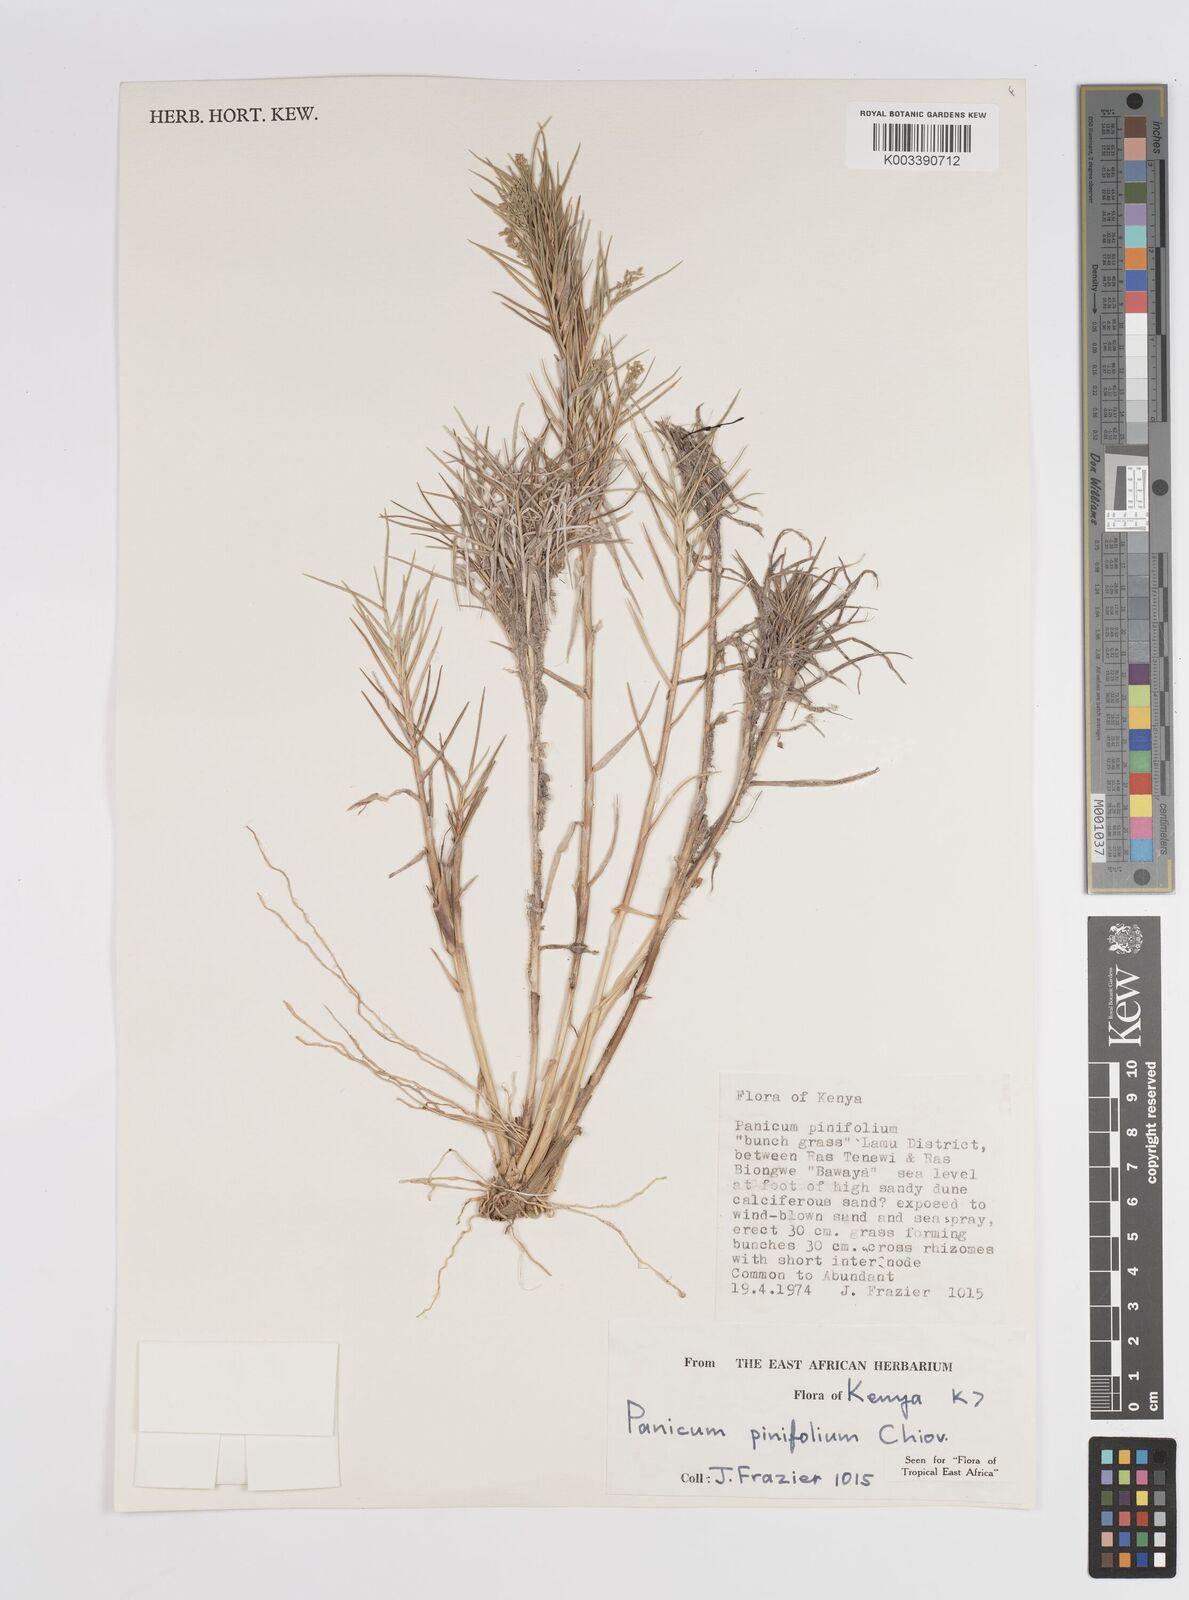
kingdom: Plantae
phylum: Tracheophyta
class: Liliopsida
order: Poales
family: Poaceae
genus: Panicum
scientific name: Panicum pinifolium
